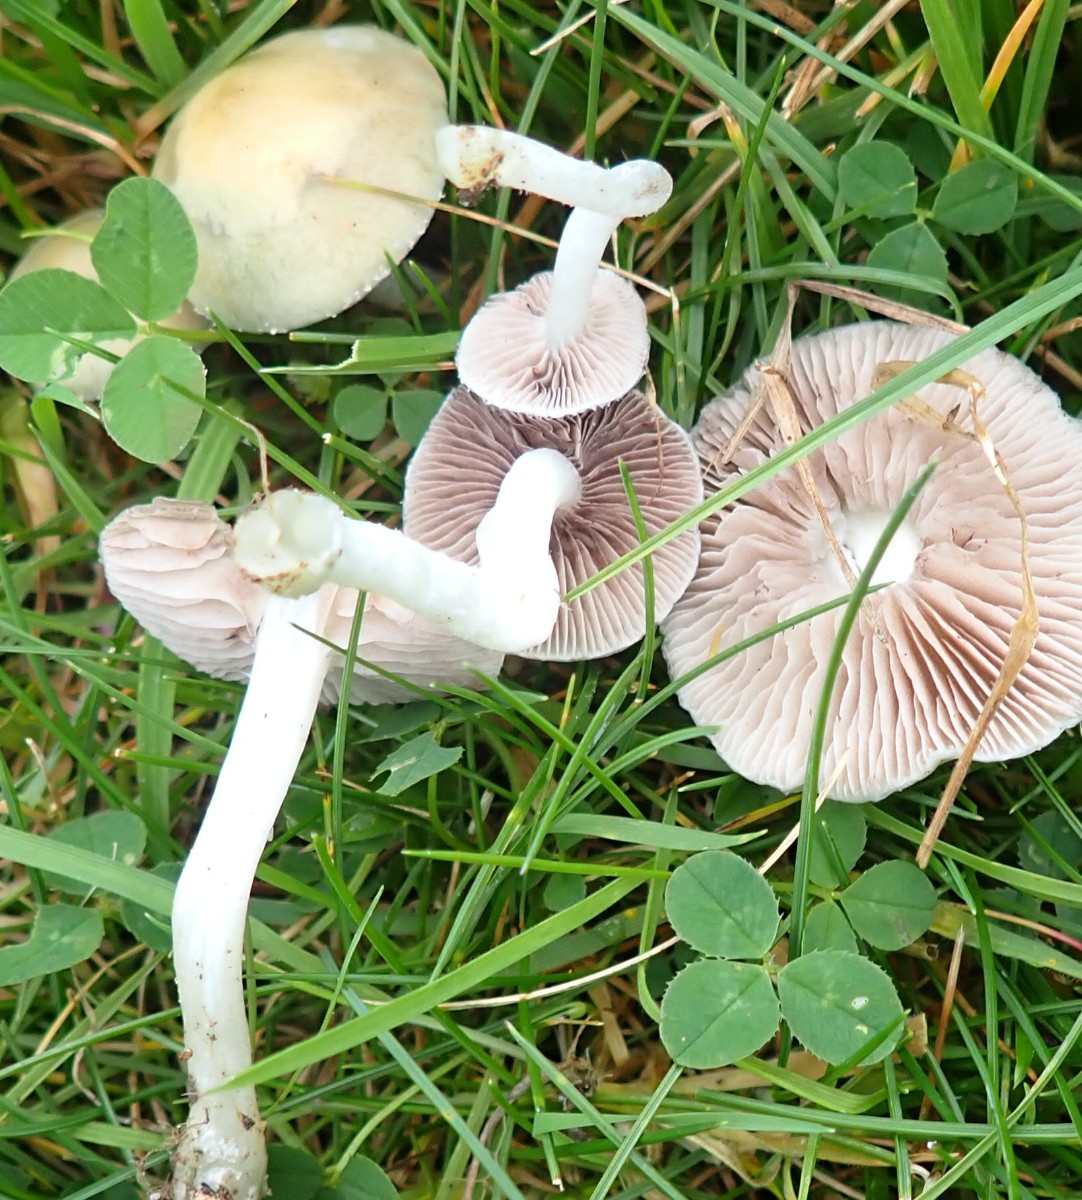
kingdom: Fungi
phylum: Basidiomycota
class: Agaricomycetes
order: Agaricales
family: Strophariaceae
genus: Stropharia
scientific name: Stropharia pseudocyanea
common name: blegblå bredblad
